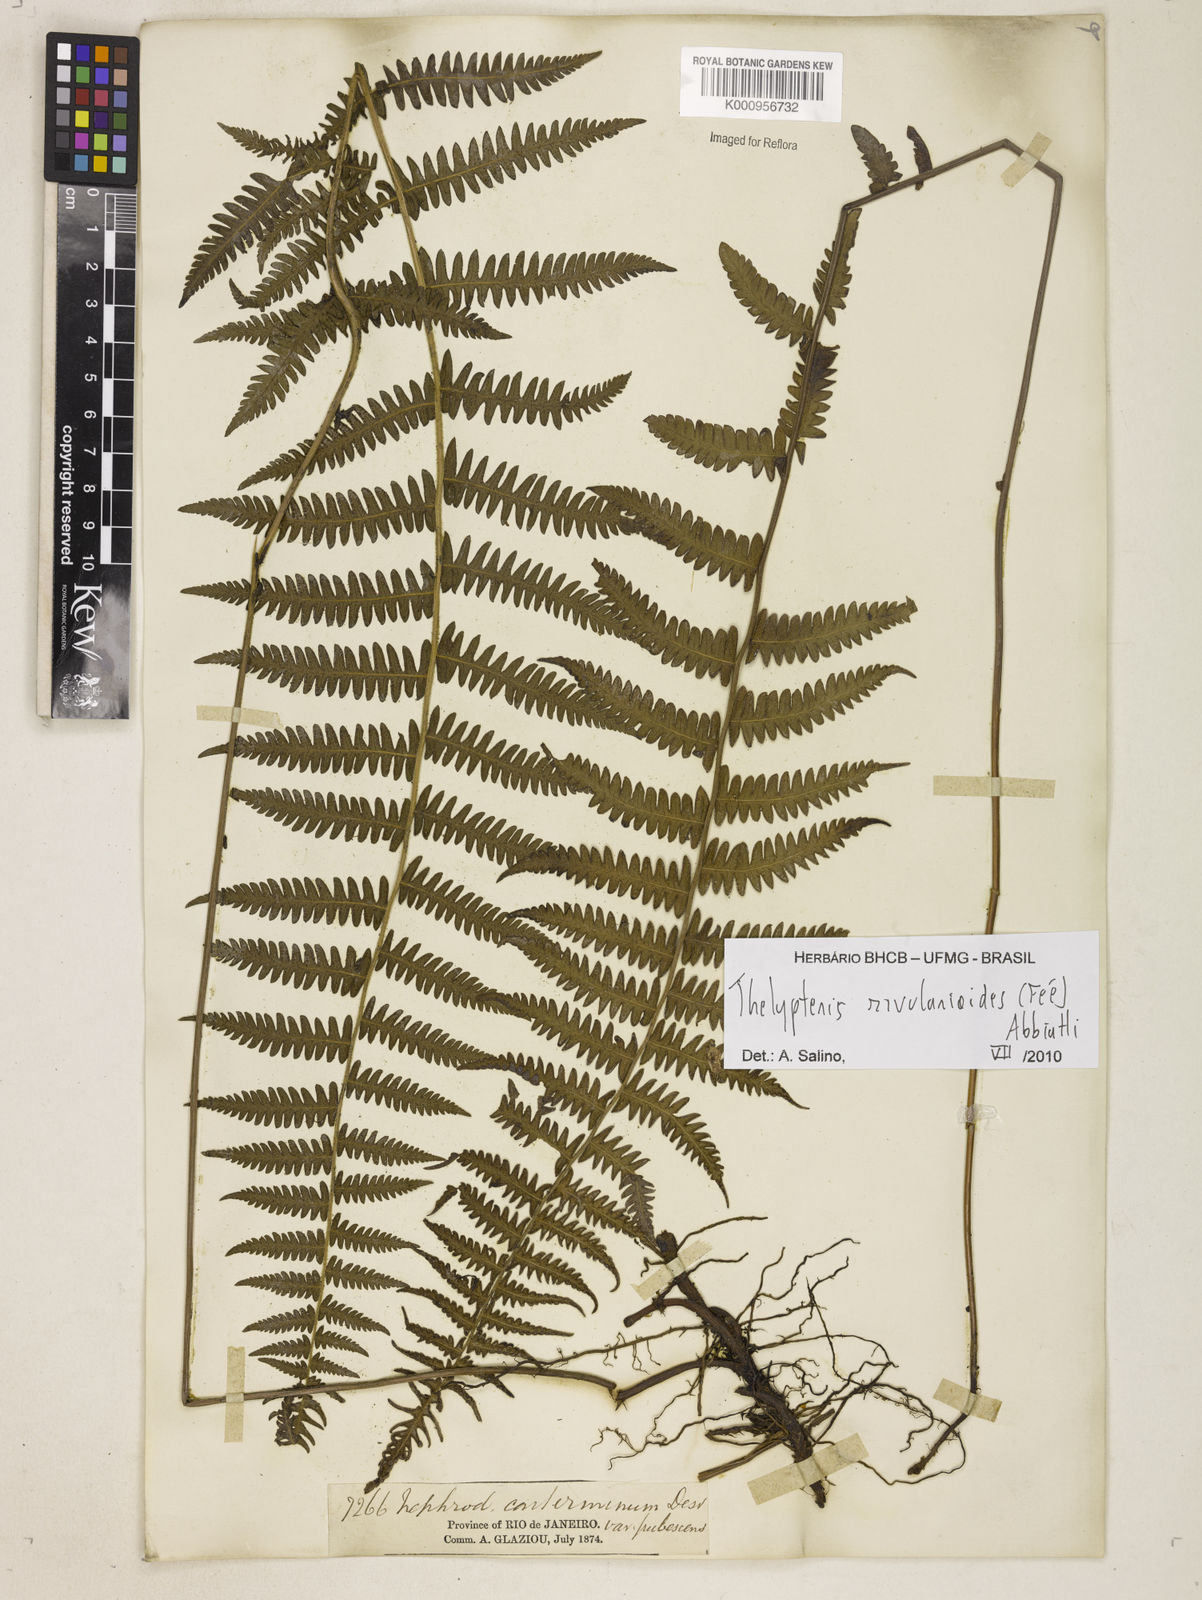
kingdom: Plantae
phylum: Tracheophyta
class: Polypodiopsida
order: Polypodiales
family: Thelypteridaceae
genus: Amauropelta
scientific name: Amauropelta rivularioides
